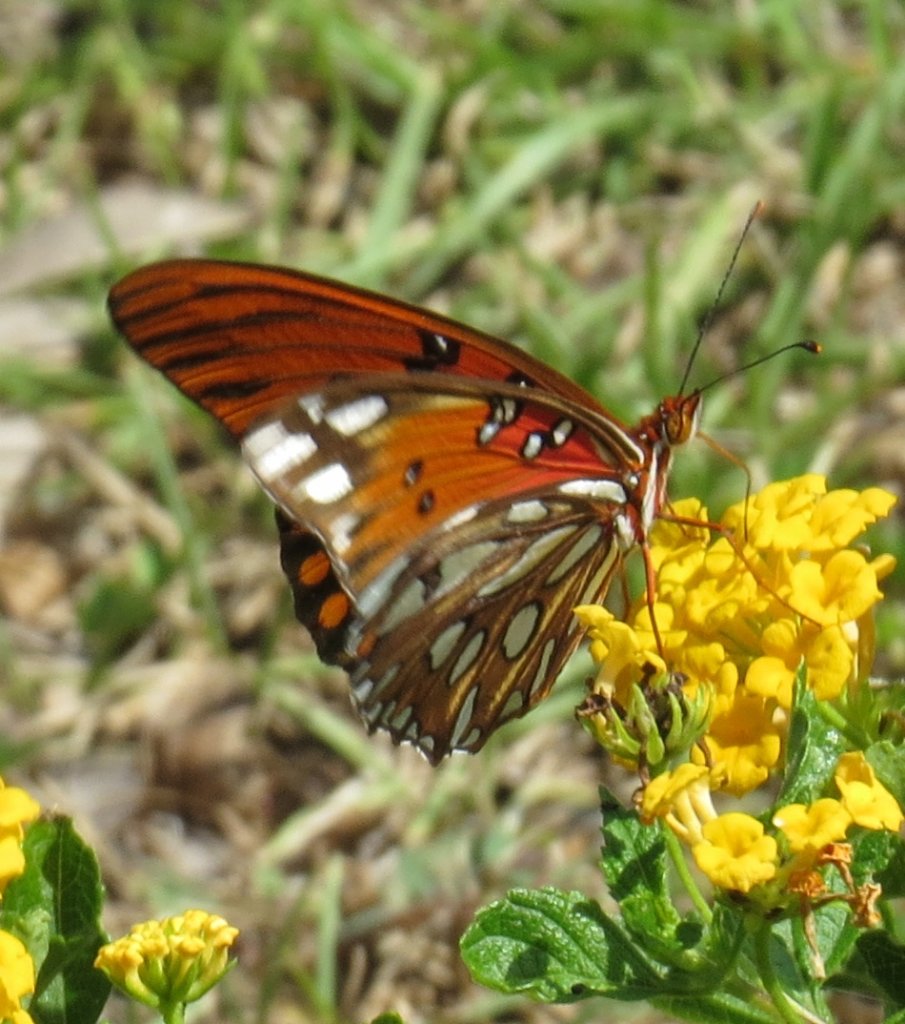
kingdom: Animalia
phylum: Arthropoda
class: Insecta
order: Lepidoptera
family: Nymphalidae
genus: Dione
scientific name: Dione vanillae
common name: Gulf Fritillary
